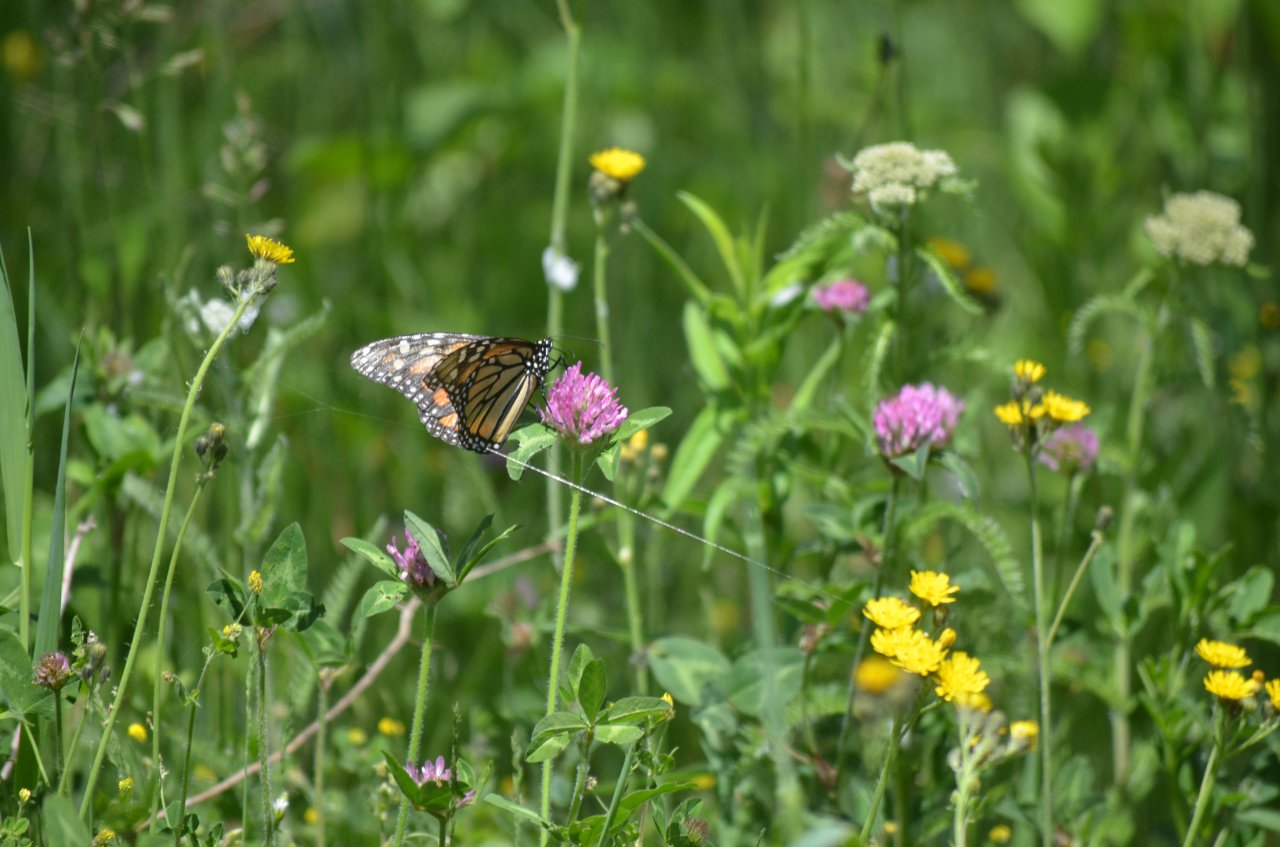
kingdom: Animalia
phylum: Arthropoda
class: Insecta
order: Lepidoptera
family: Nymphalidae
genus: Danaus
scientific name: Danaus plexippus
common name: Monarch
